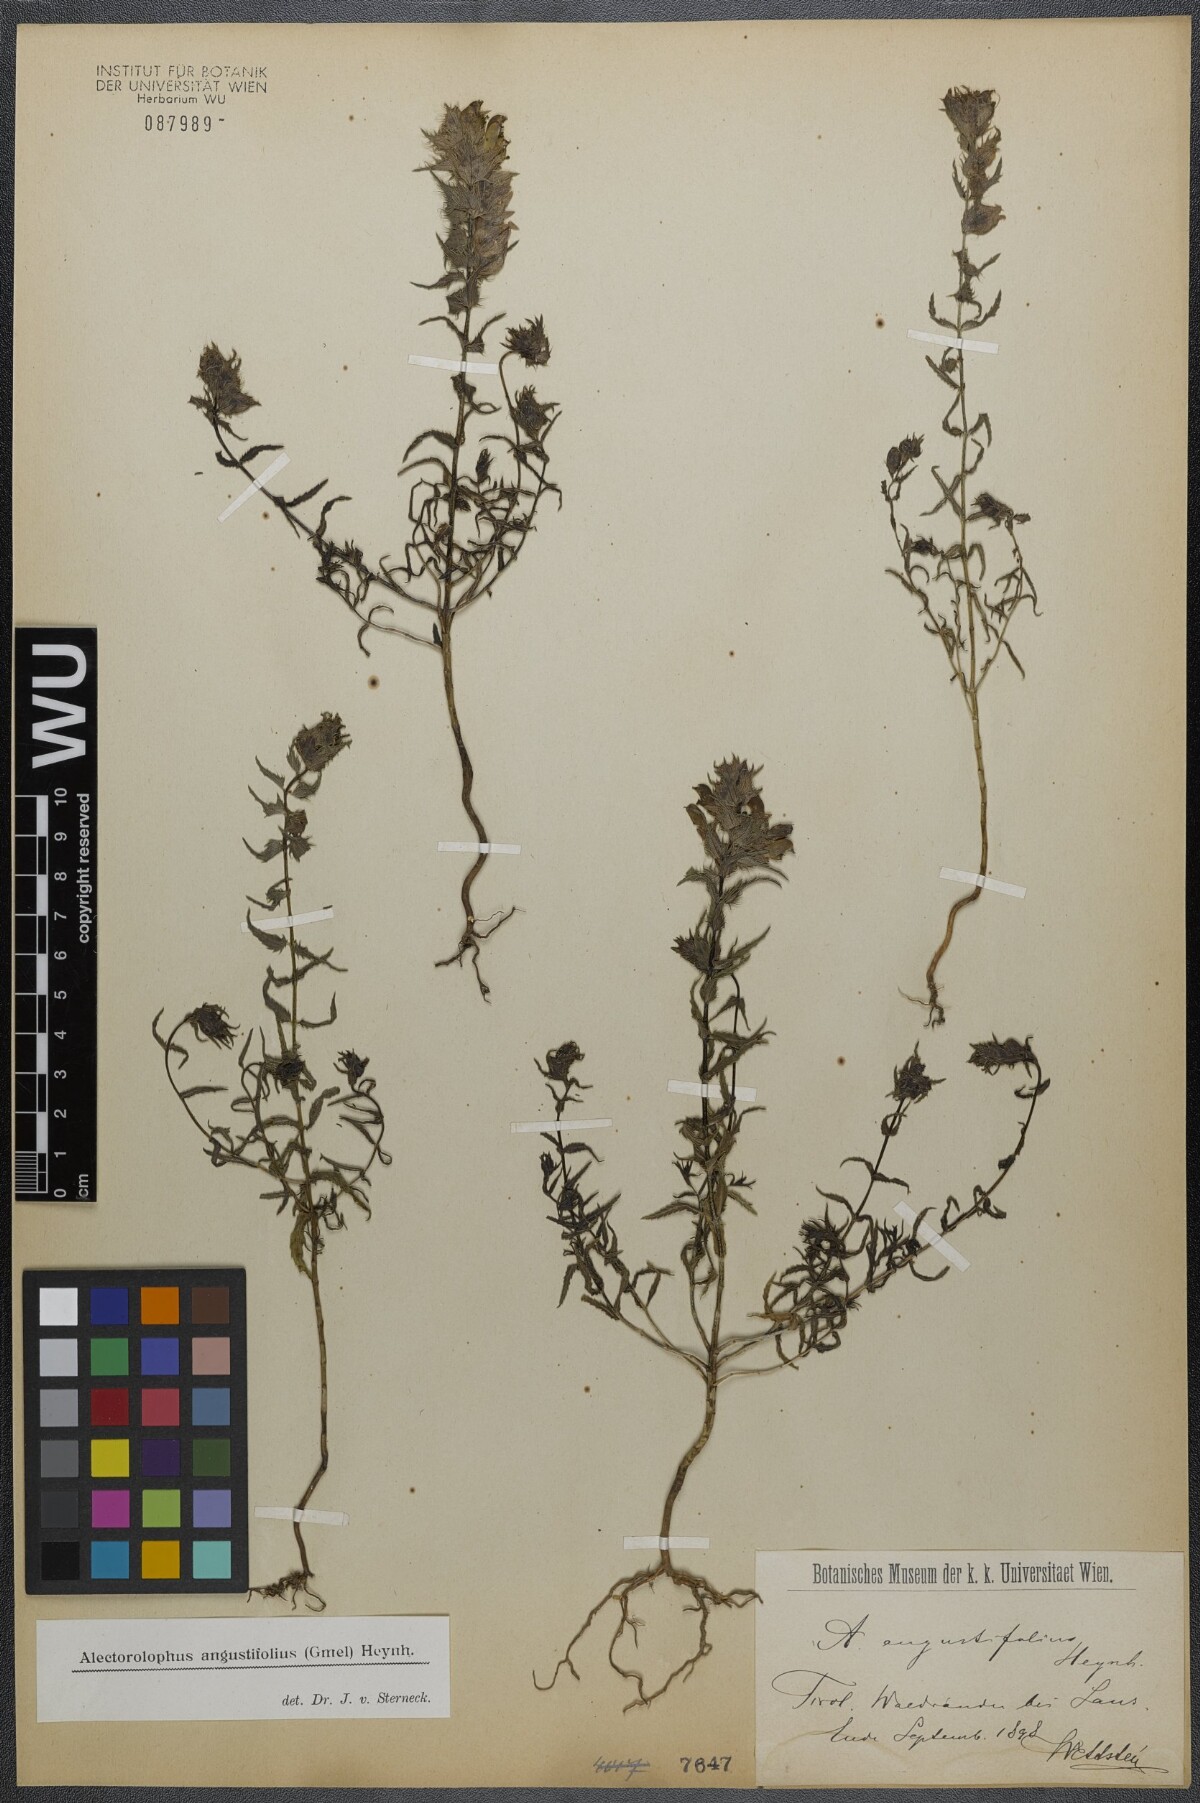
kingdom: Plantae
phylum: Tracheophyta
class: Magnoliopsida
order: Lamiales
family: Orobanchaceae
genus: Rhinanthus
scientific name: Rhinanthus
